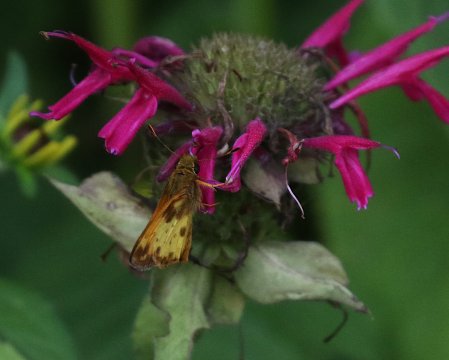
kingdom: Animalia
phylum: Arthropoda
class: Insecta
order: Lepidoptera
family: Hesperiidae
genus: Lon
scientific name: Lon zabulon
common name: Zabulon Skipper
